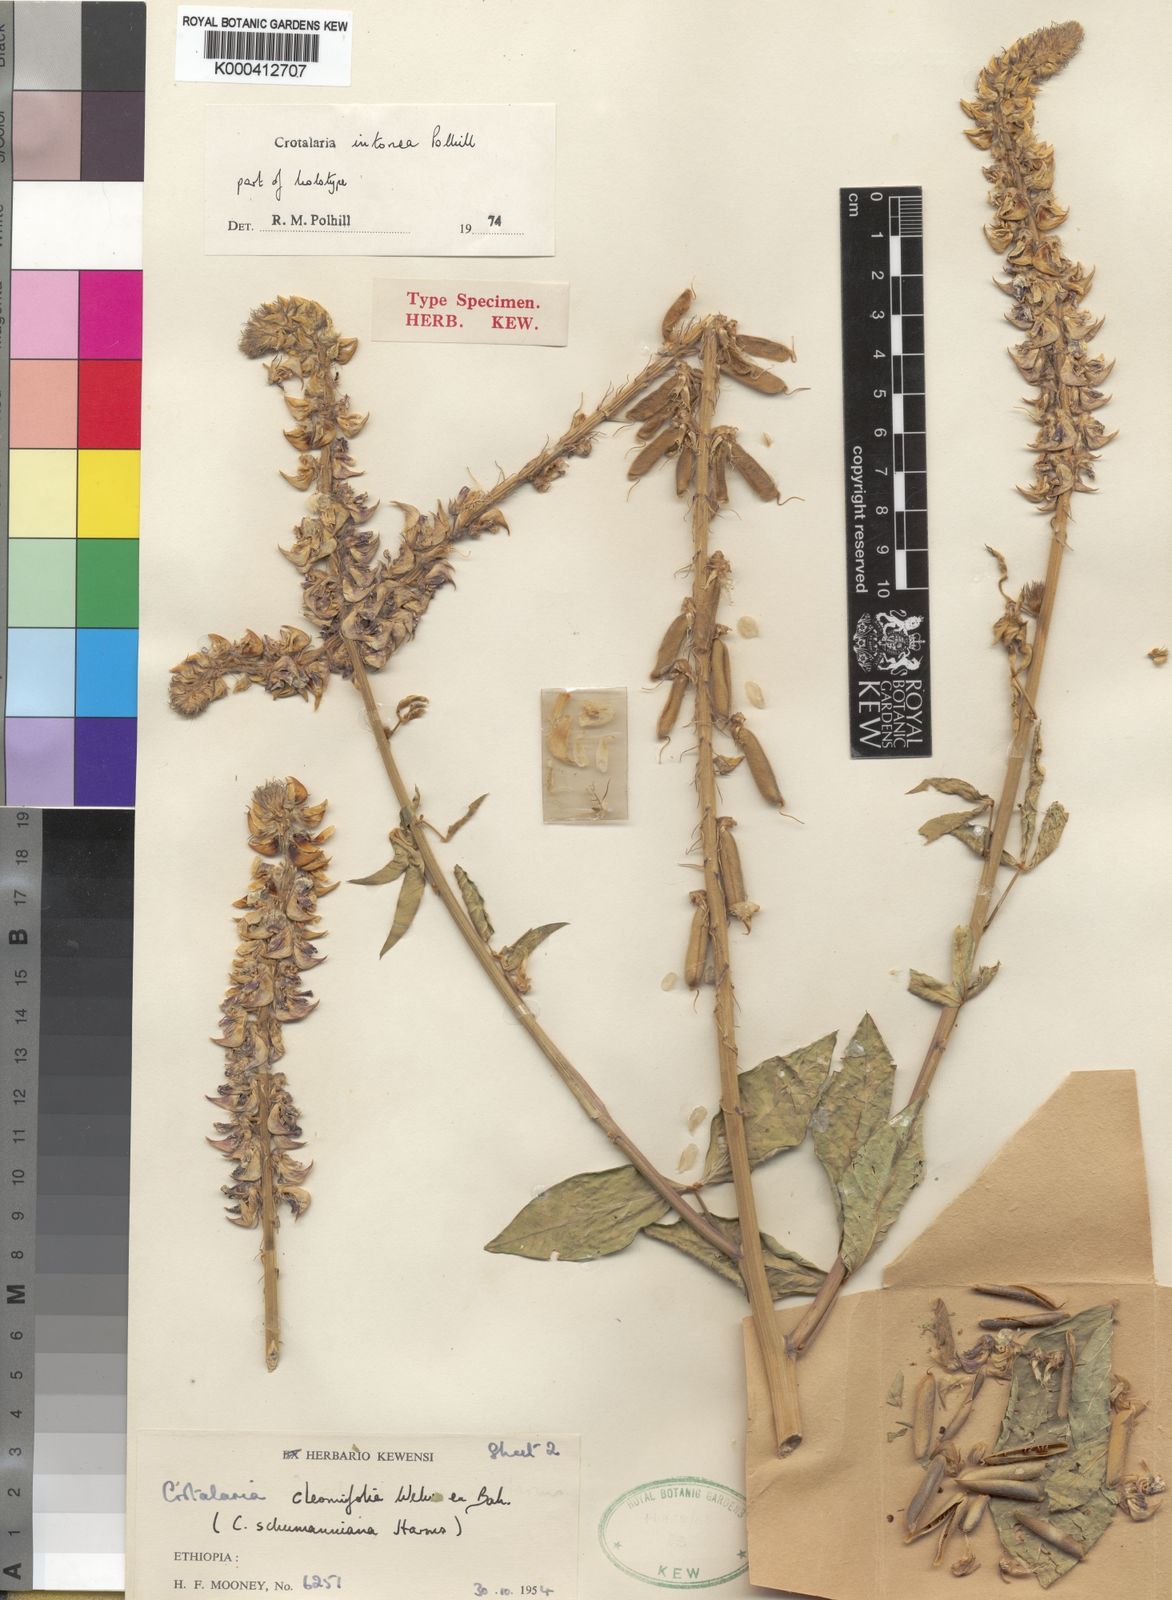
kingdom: Plantae
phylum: Tracheophyta
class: Magnoliopsida
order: Fabales
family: Fabaceae
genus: Crotalaria
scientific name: Crotalaria intonsa
